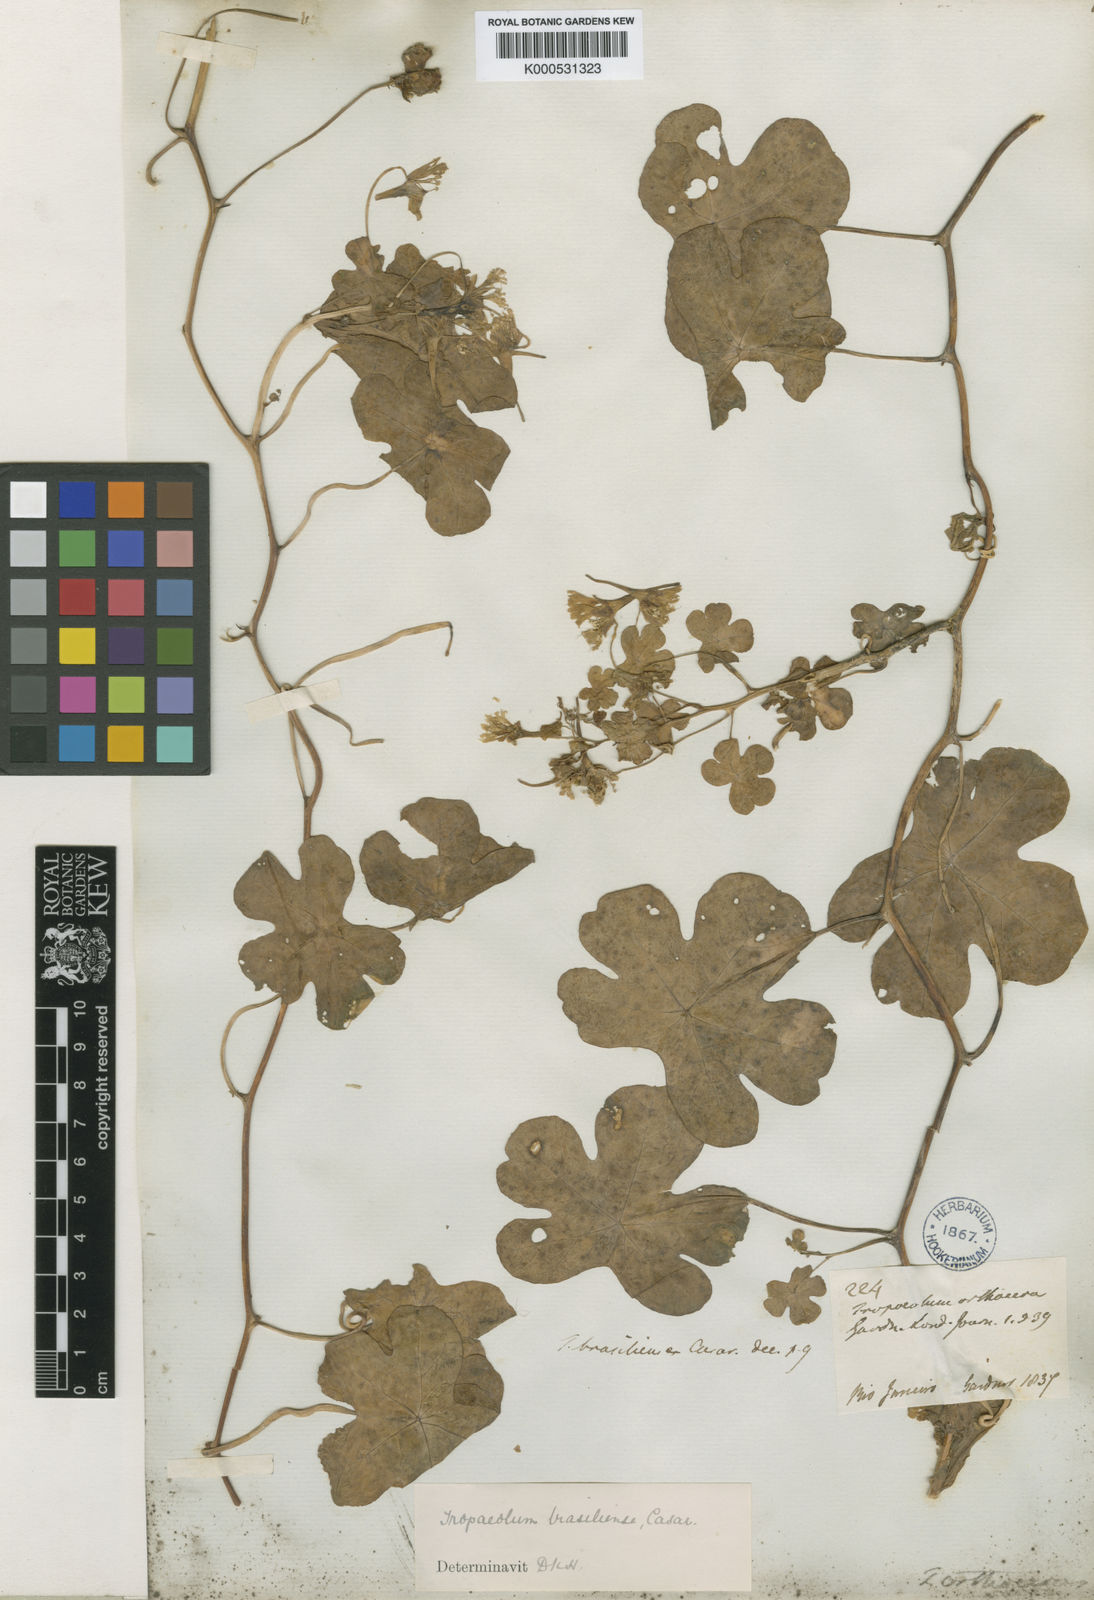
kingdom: Plantae
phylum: Tracheophyta
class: Magnoliopsida
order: Brassicales
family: Tropaeolaceae
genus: Tropaeolum
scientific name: Tropaeolum brasiliense
